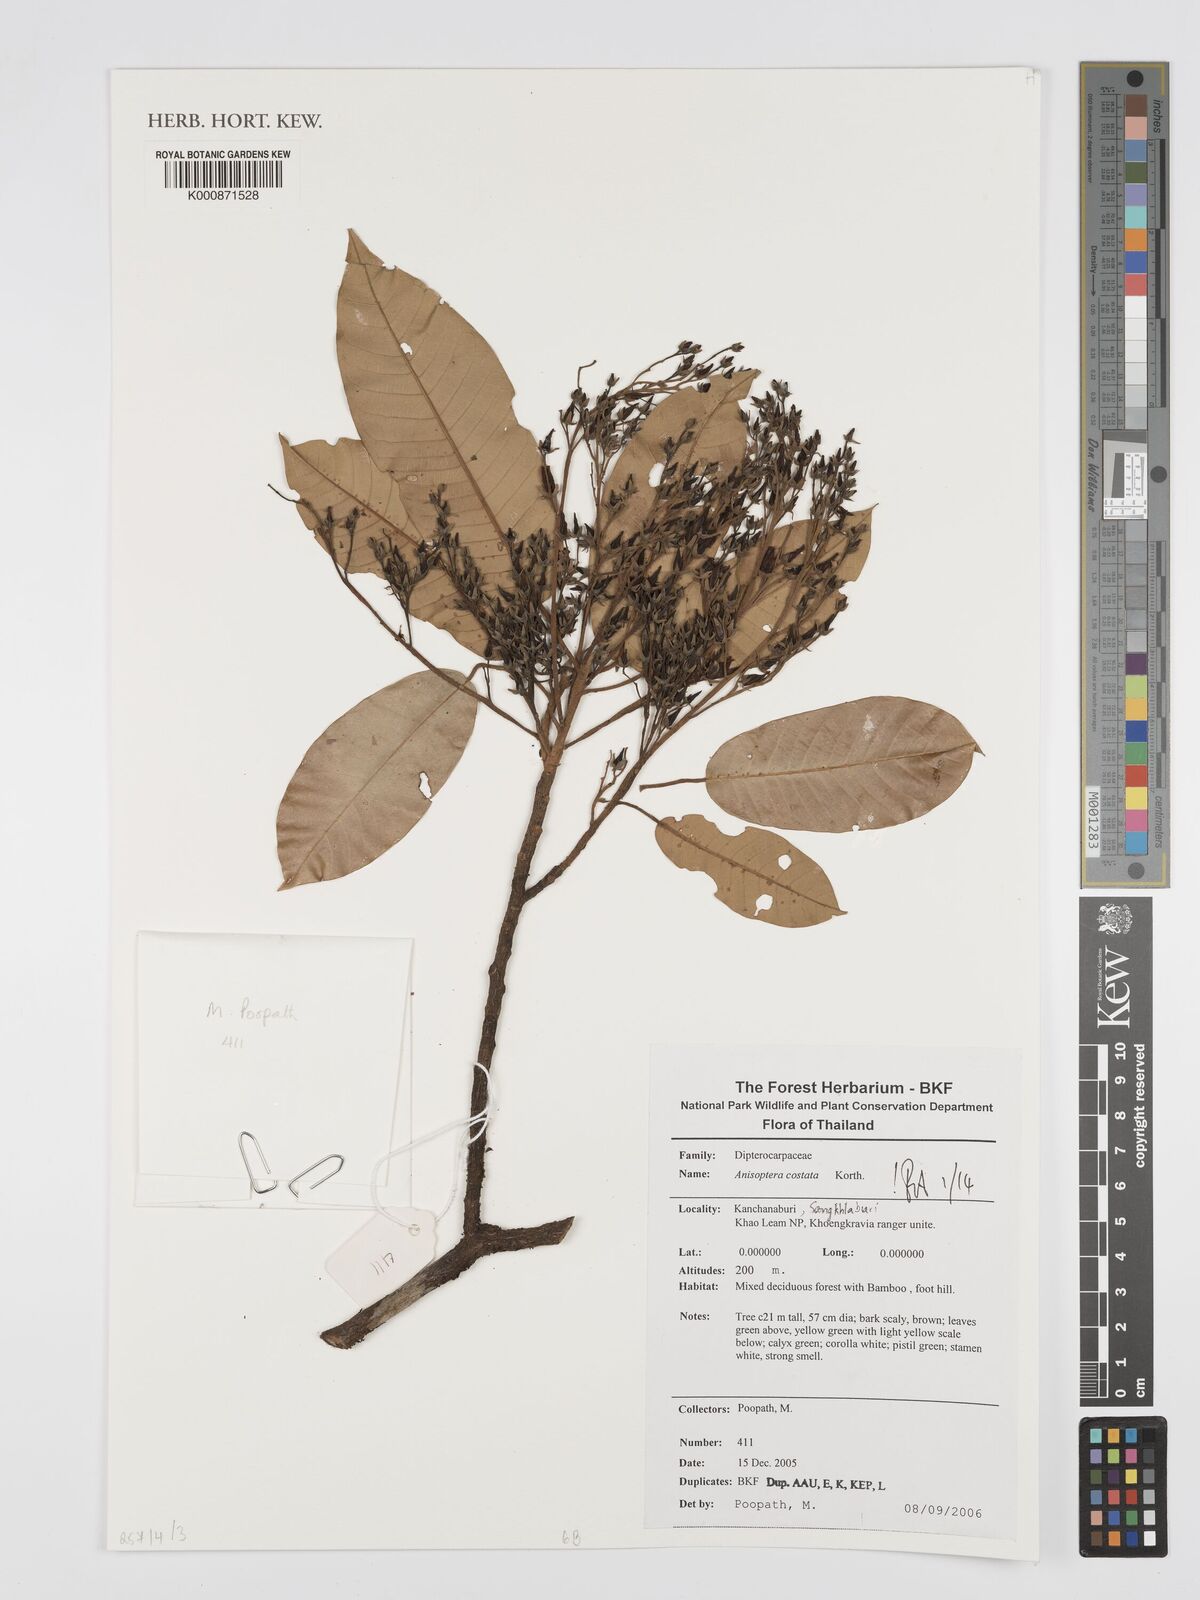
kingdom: Plantae
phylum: Tracheophyta
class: Magnoliopsida
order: Malvales
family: Dipterocarpaceae
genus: Anisoptera
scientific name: Anisoptera costata
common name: Mersawa
